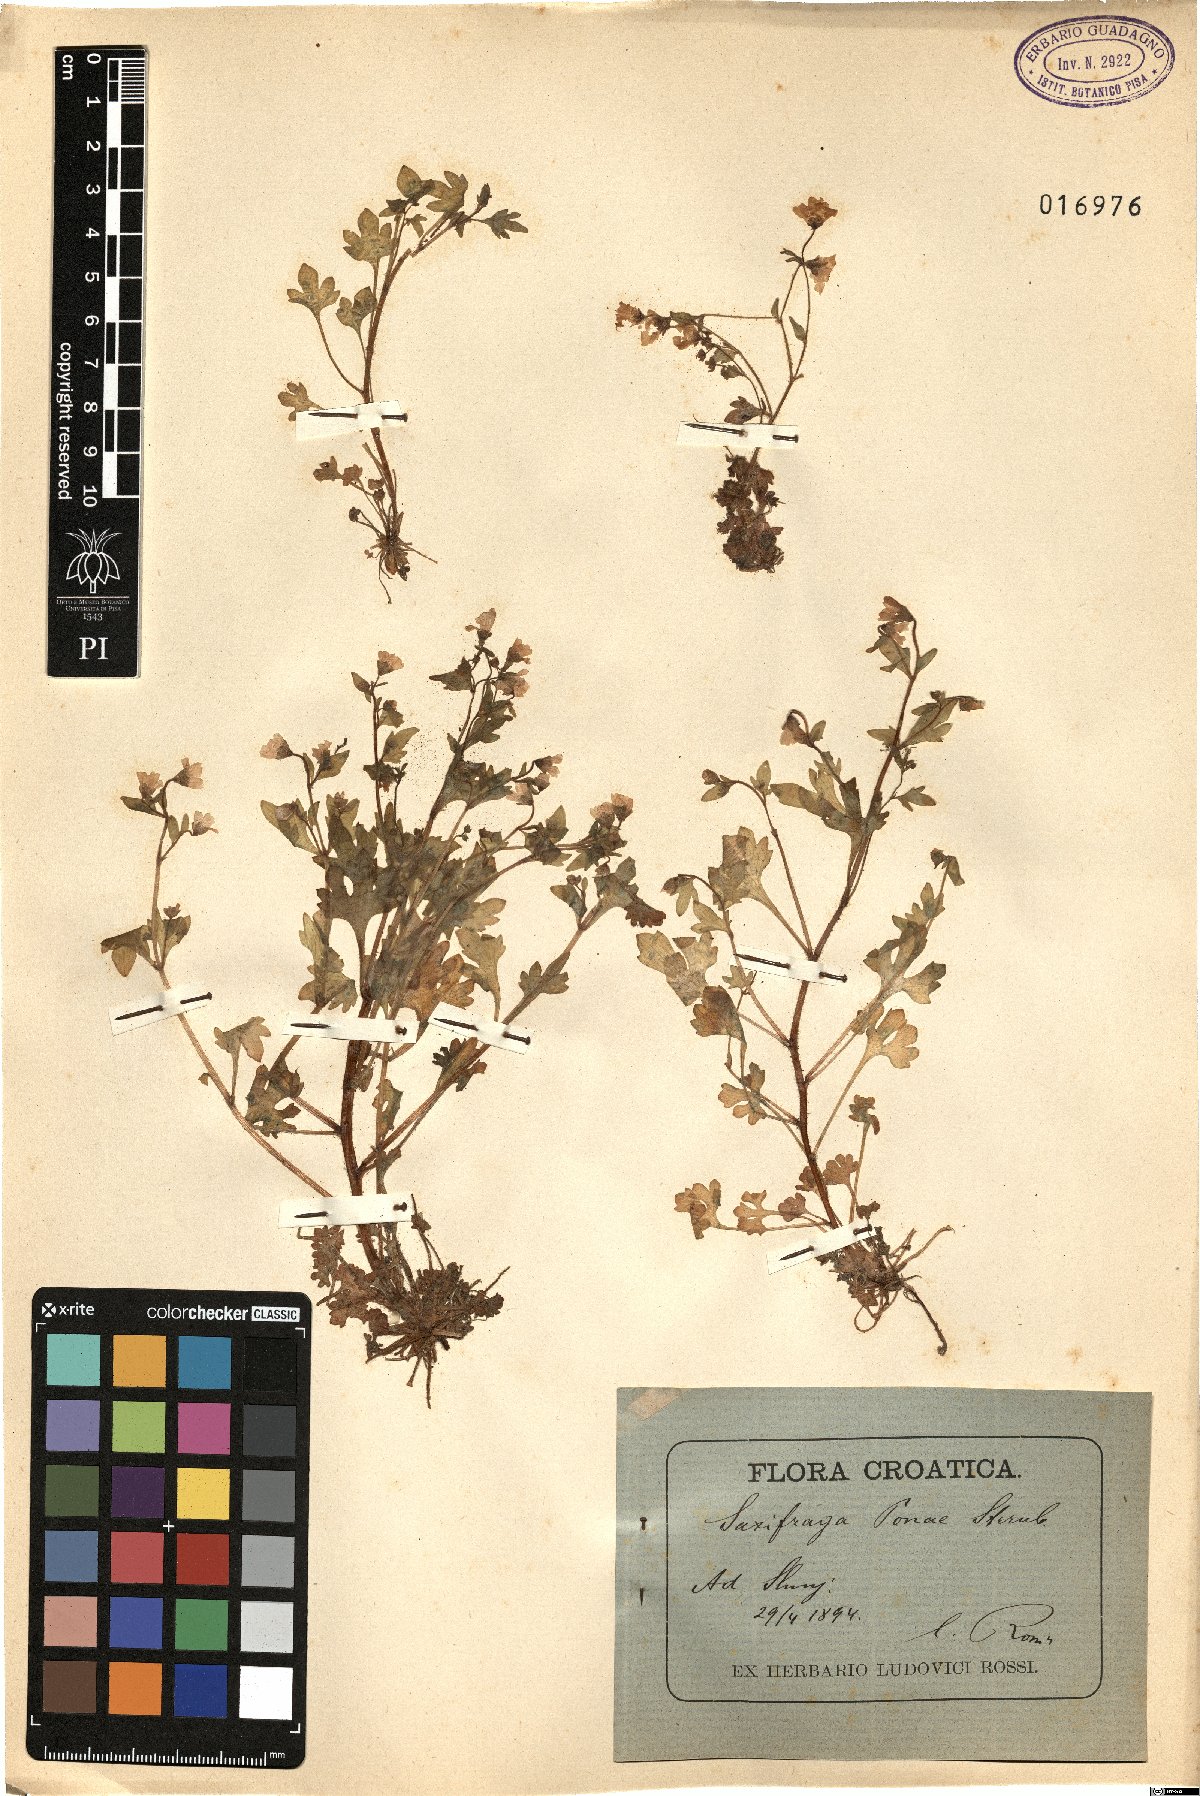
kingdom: Plantae
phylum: Tracheophyta
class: Magnoliopsida
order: Saxifragales
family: Saxifragaceae
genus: Saxifraga
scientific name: Saxifraga petraea
